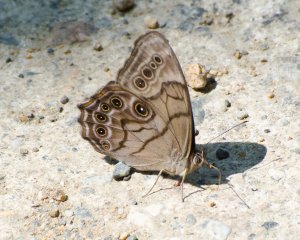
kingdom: Animalia
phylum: Arthropoda
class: Insecta
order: Lepidoptera
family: Nymphalidae
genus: Lethe
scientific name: Lethe anthedon
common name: Northern Pearly-Eye
